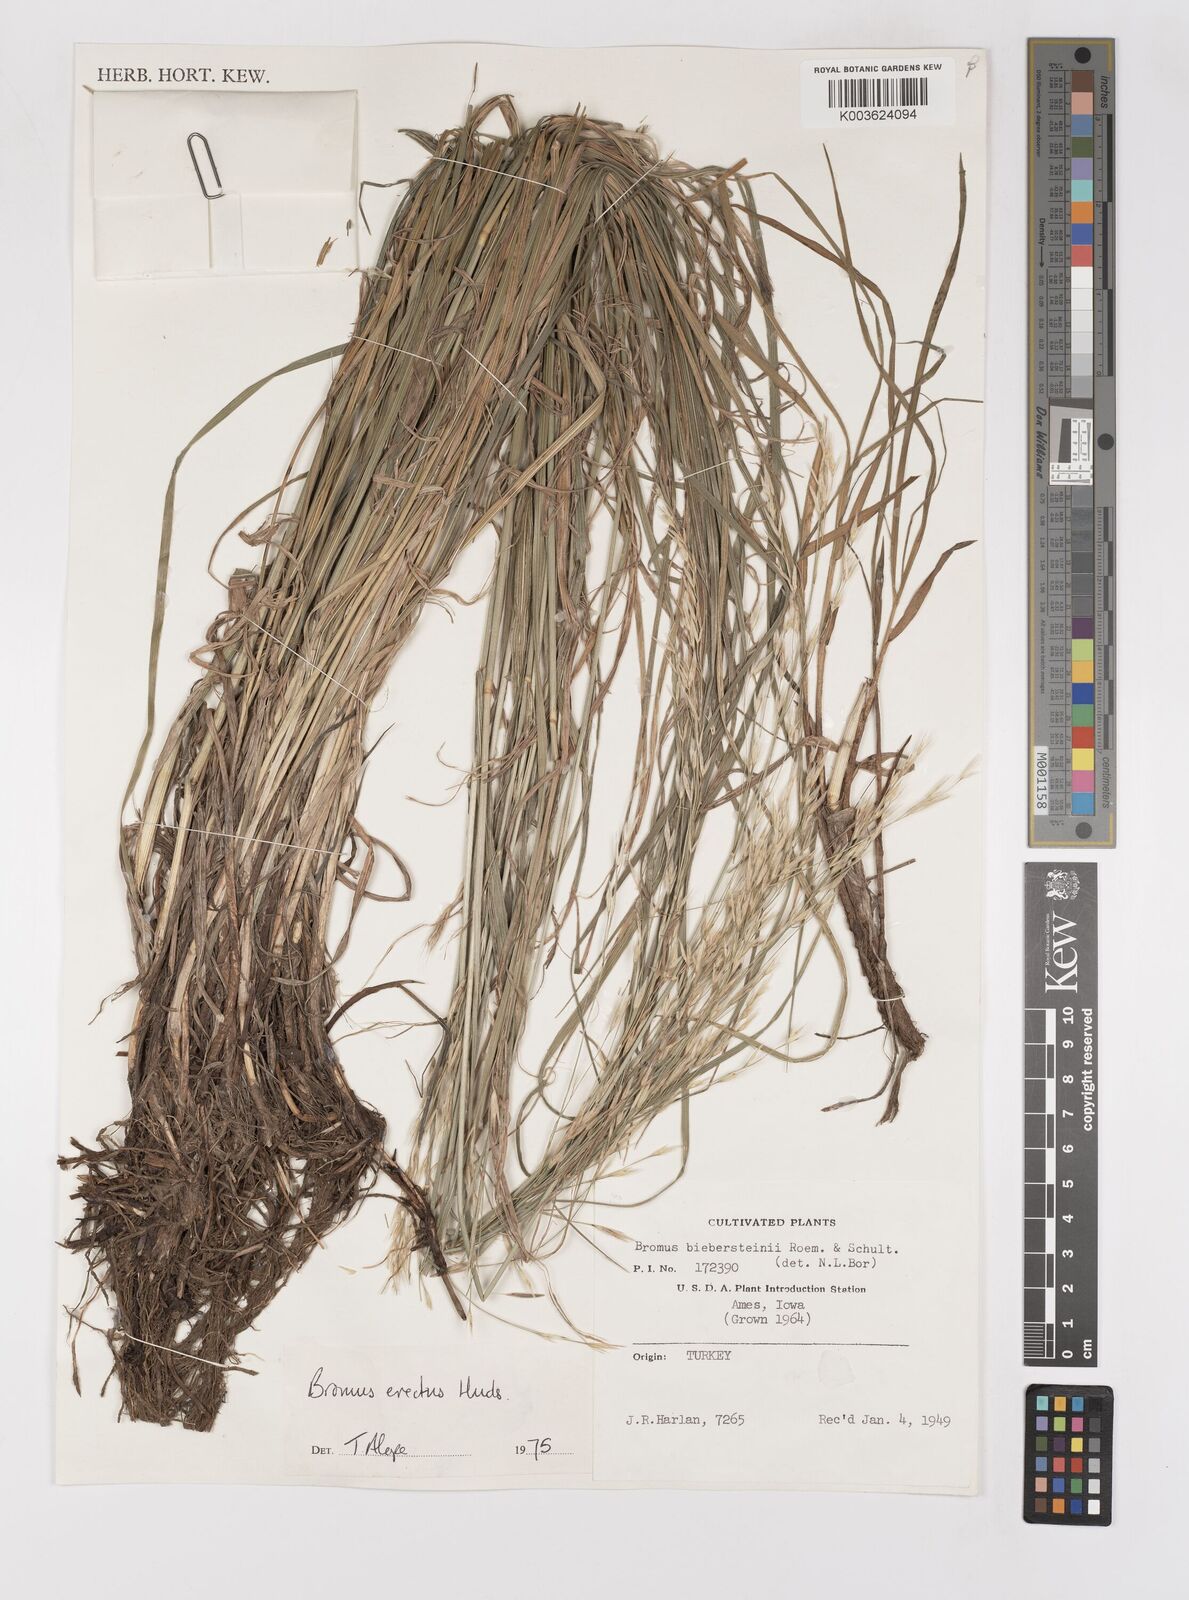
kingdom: Plantae
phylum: Tracheophyta
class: Liliopsida
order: Poales
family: Poaceae
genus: Bromus
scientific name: Bromus erectus
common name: Erect brome
